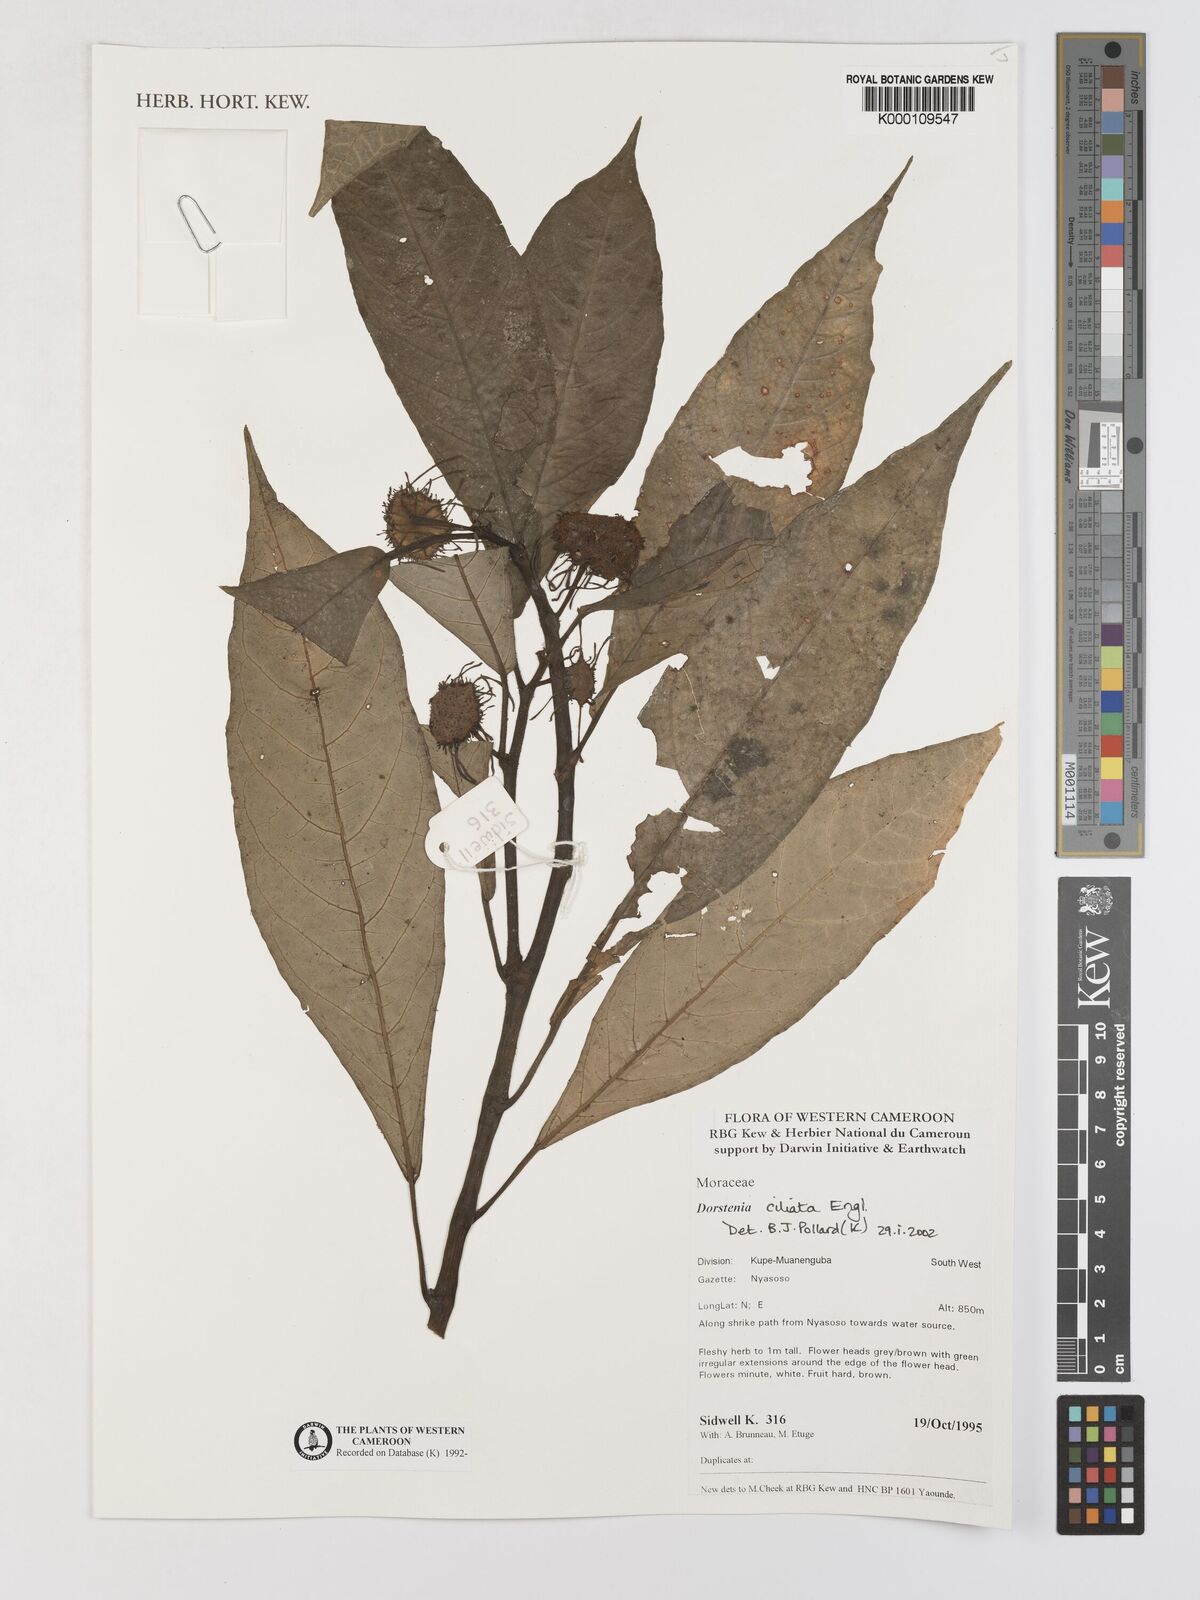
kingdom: Plantae
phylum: Tracheophyta
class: Magnoliopsida
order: Rosales
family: Moraceae
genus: Dorstenia
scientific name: Dorstenia ciliata
